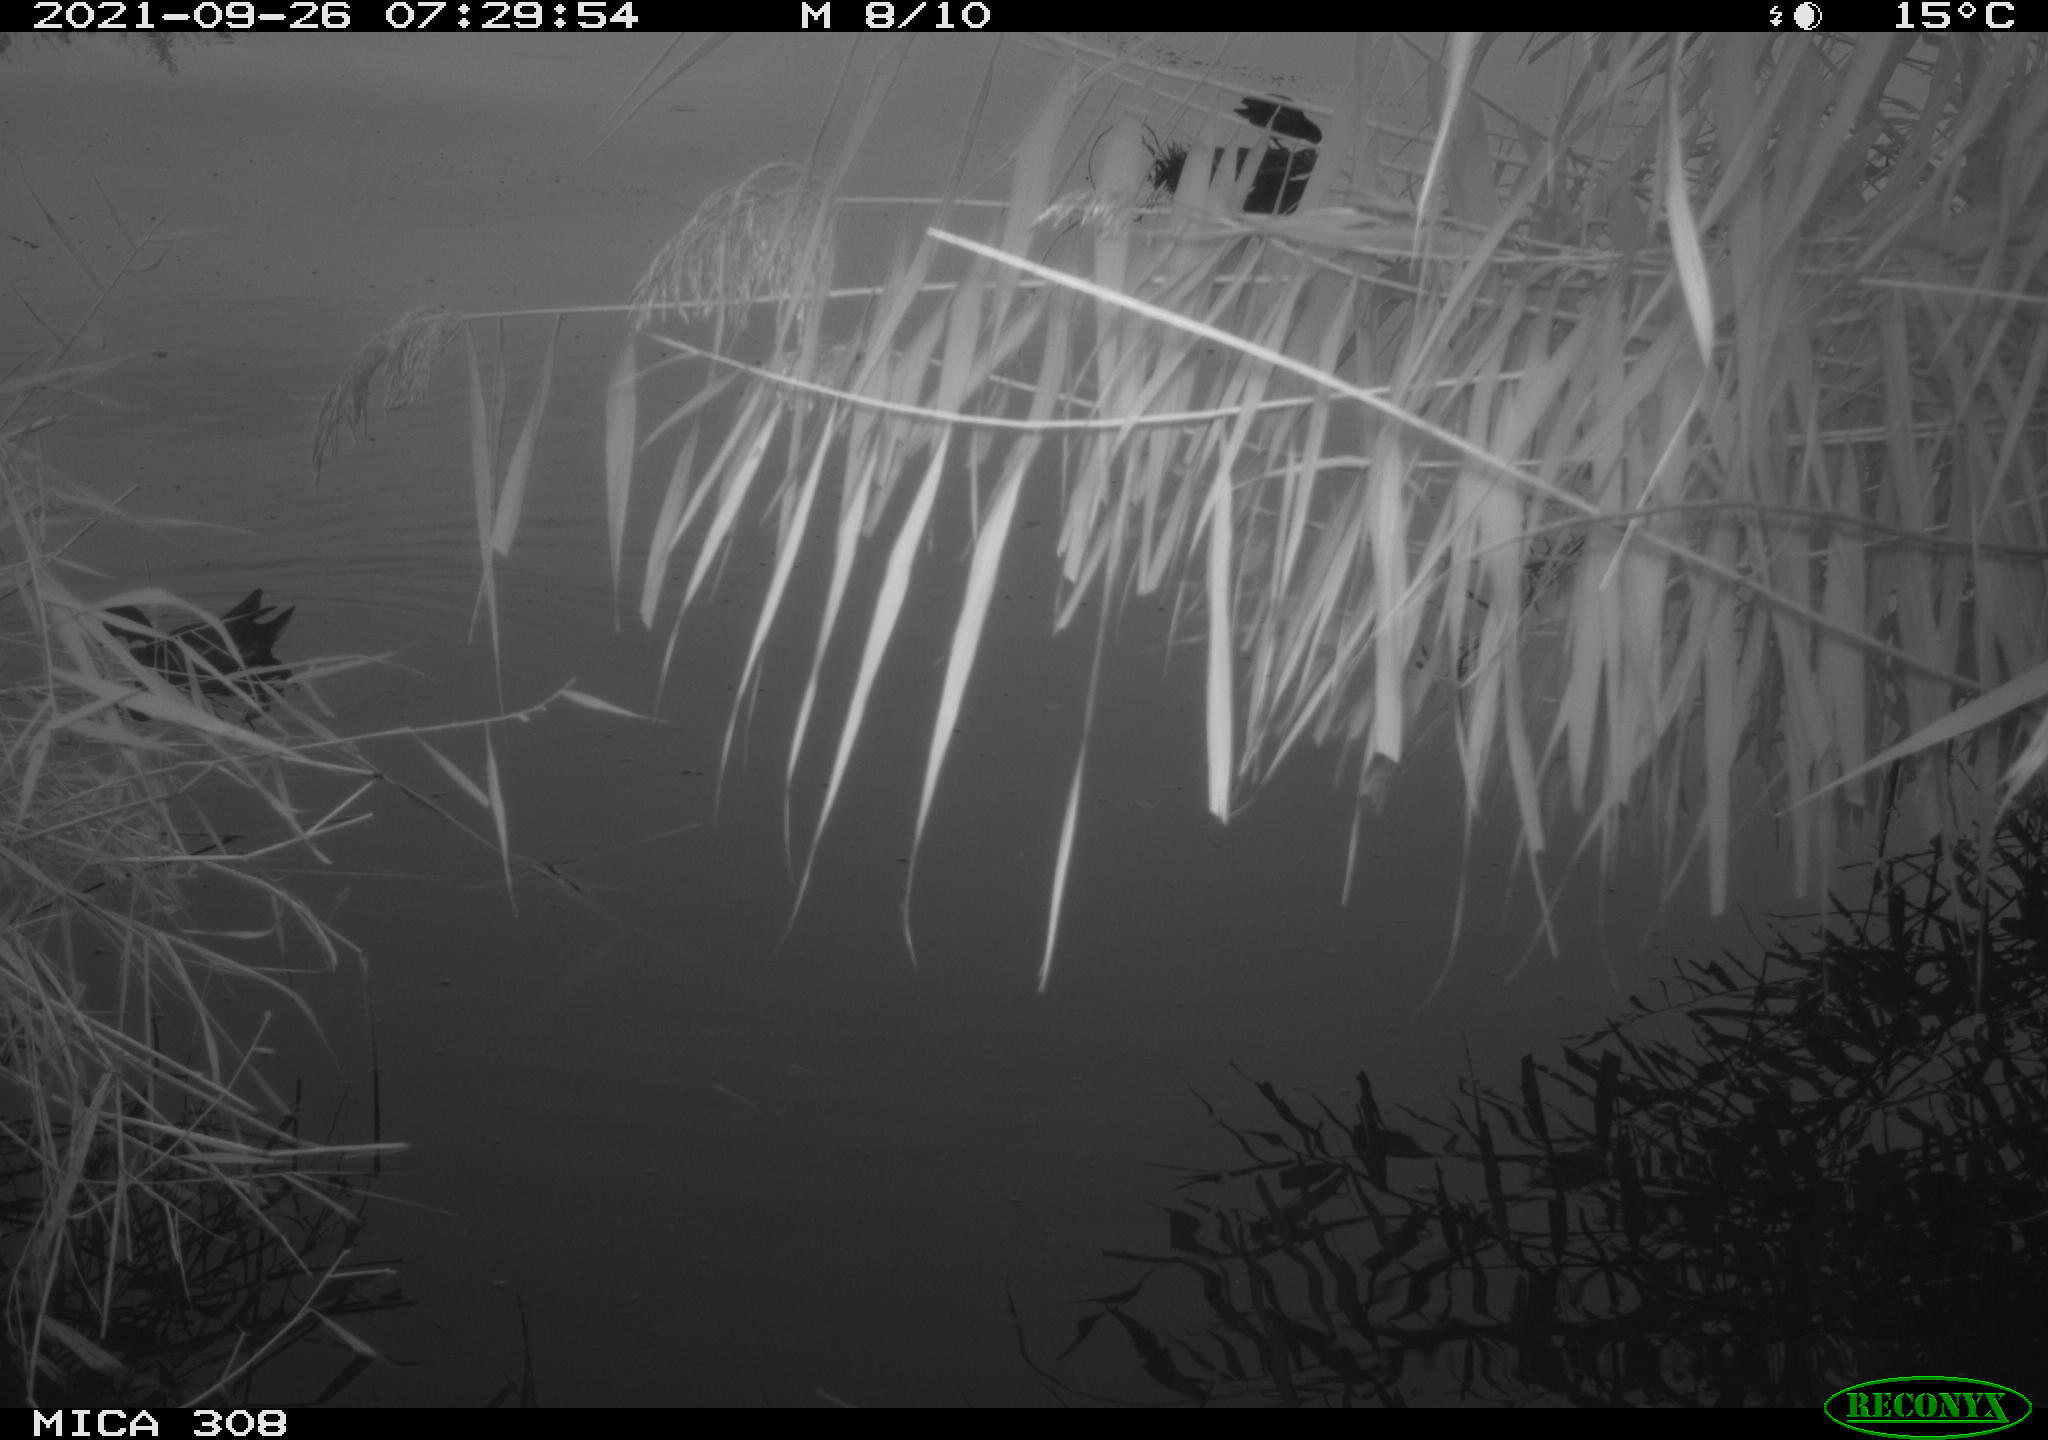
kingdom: Animalia
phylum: Chordata
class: Aves
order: Gruiformes
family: Rallidae
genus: Gallinula
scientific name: Gallinula chloropus
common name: Common moorhen
